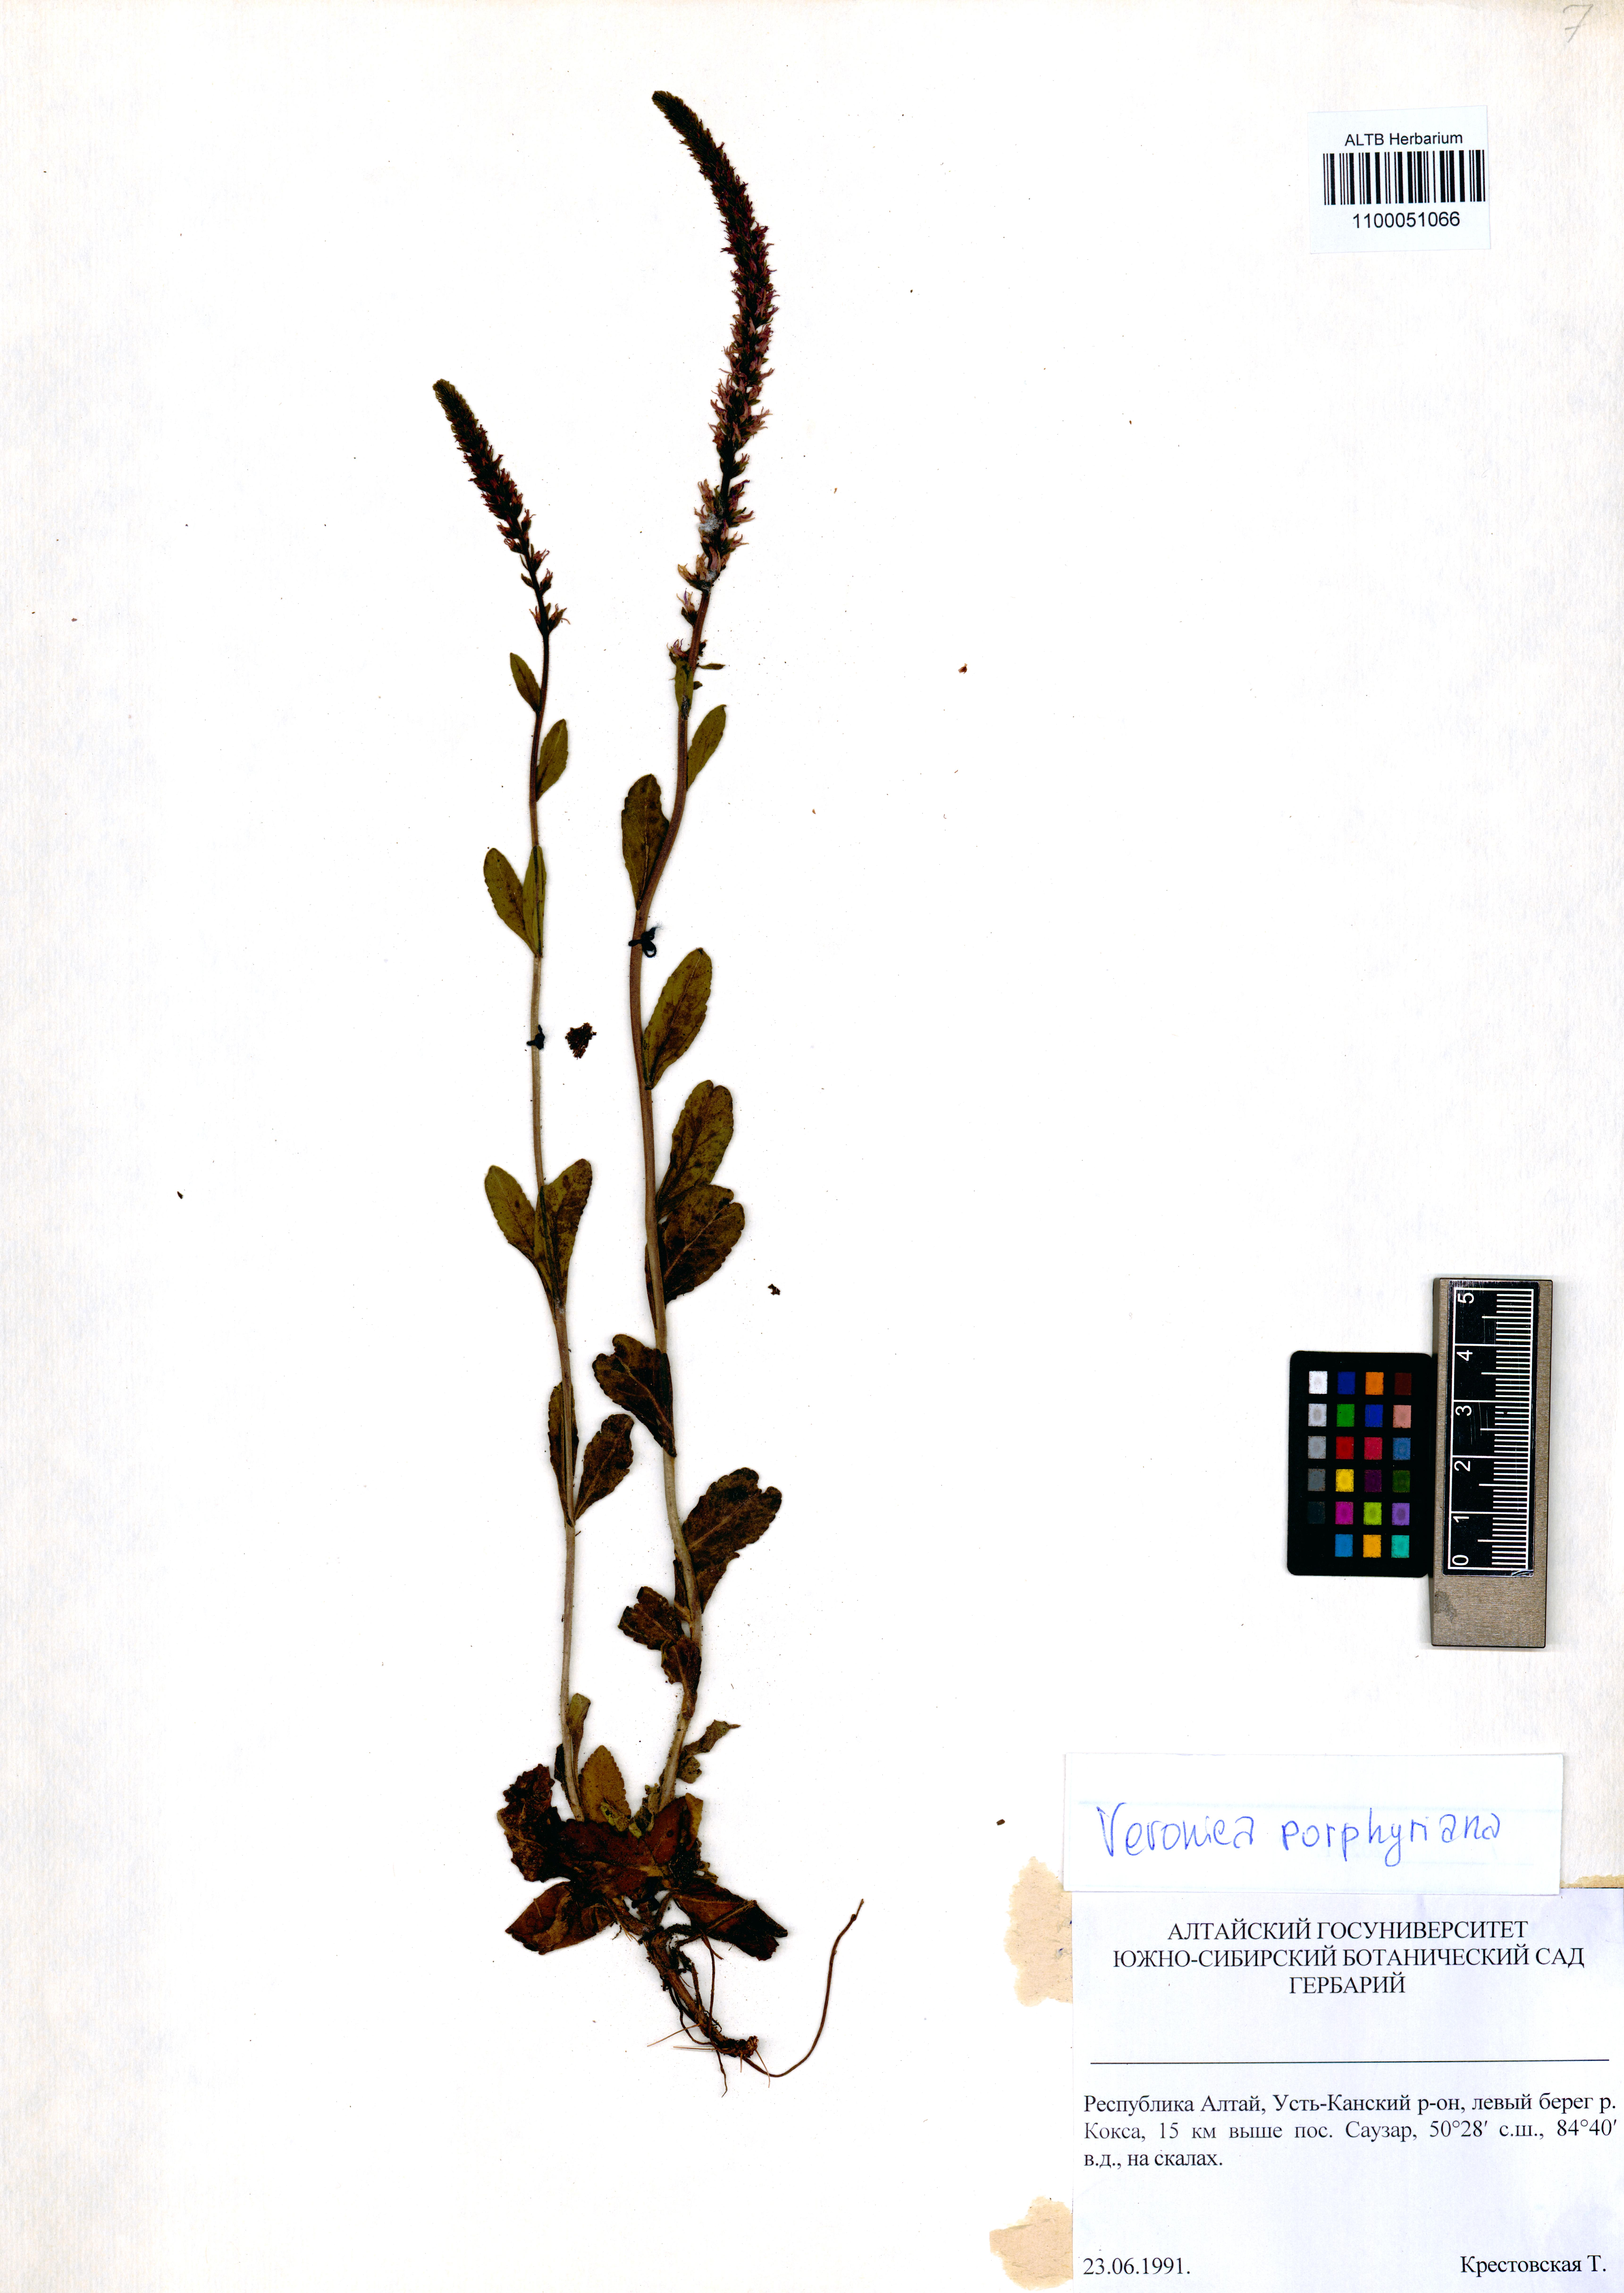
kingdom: Plantae
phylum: Tracheophyta
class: Magnoliopsida
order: Lamiales
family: Plantaginaceae
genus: Veronica
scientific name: Veronica porphyriana
